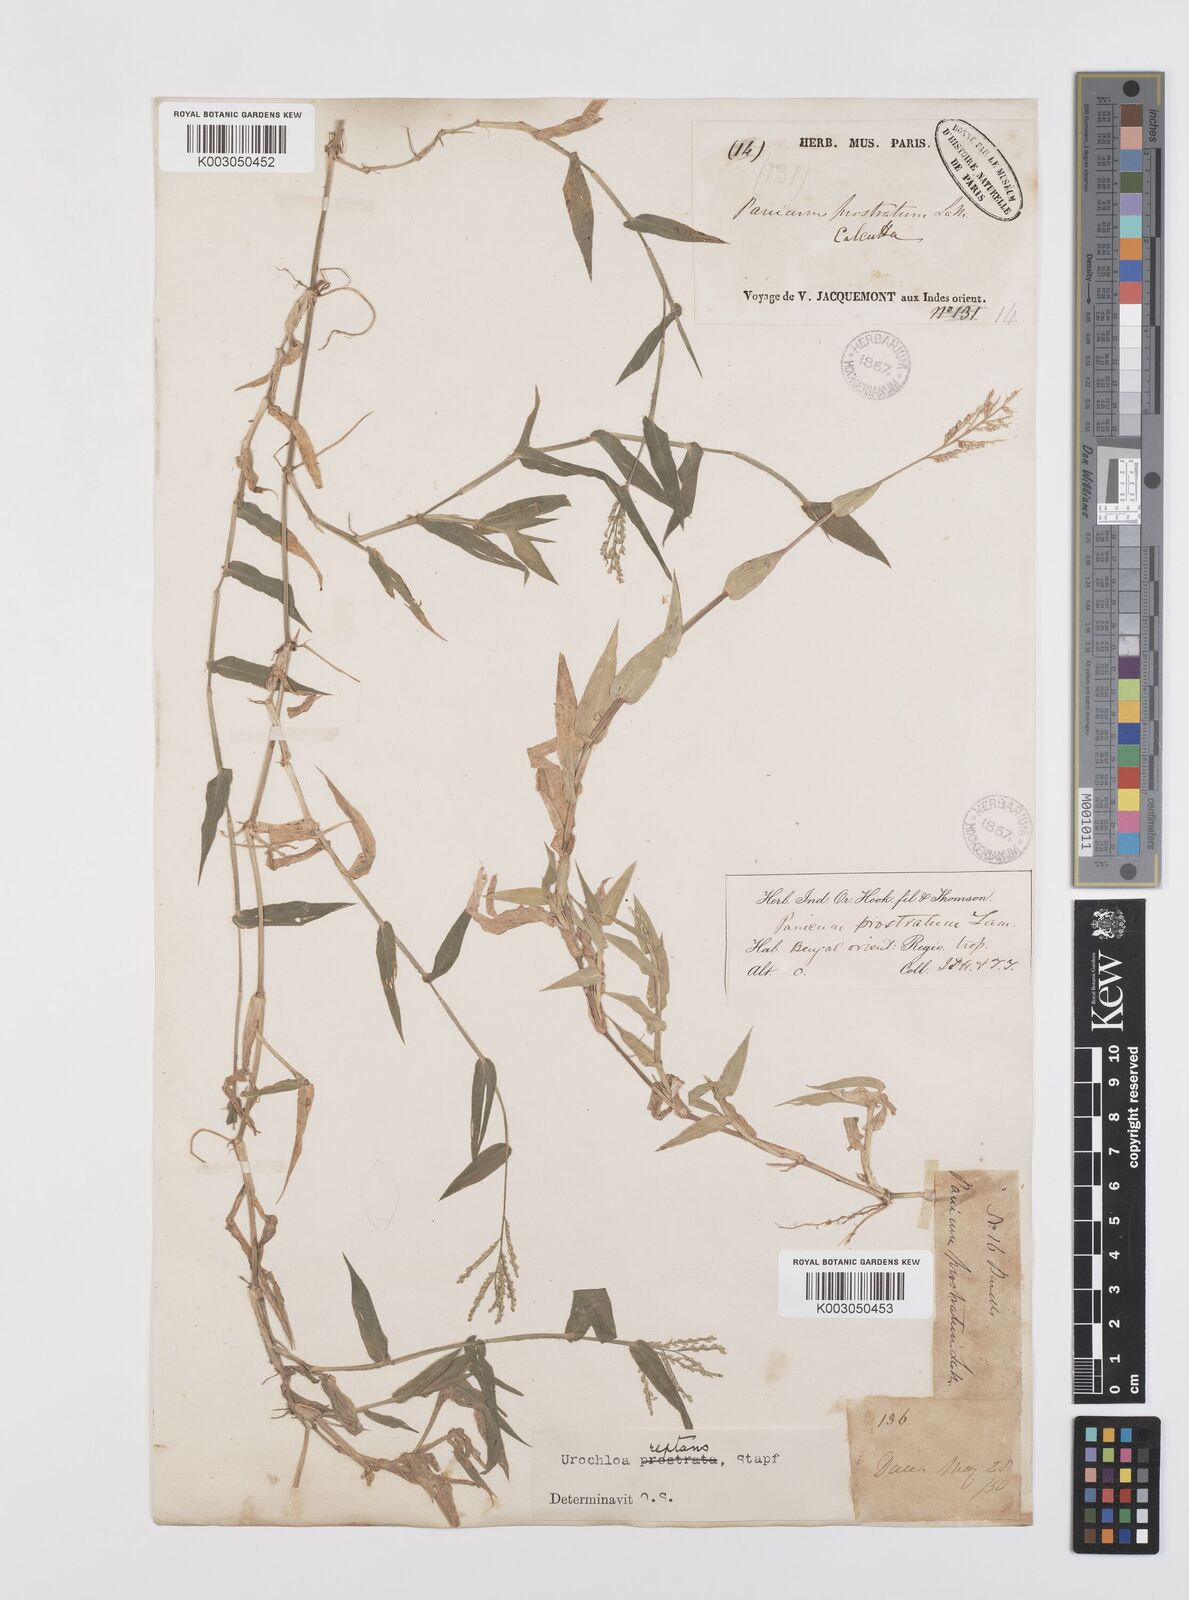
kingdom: Plantae
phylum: Tracheophyta
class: Liliopsida
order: Poales
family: Poaceae
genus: Urochloa
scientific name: Urochloa reptans
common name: Sprawling signalgrass
